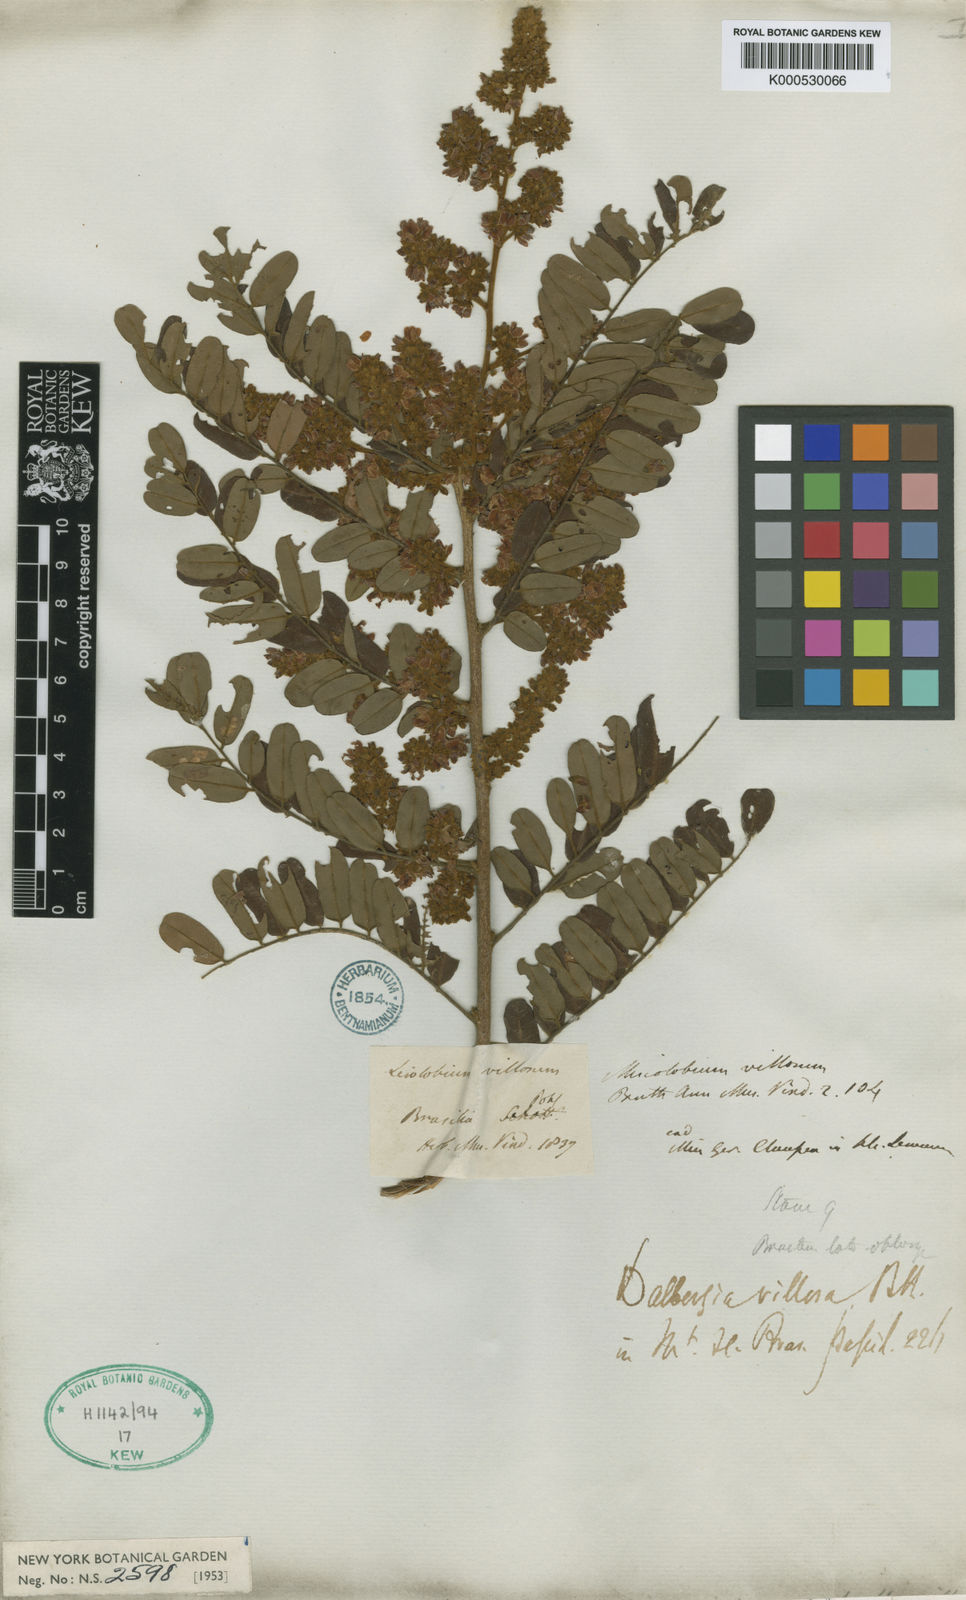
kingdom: Plantae
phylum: Tracheophyta
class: Magnoliopsida
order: Fabales
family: Fabaceae
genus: Dalbergia
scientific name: Dalbergia villosa
